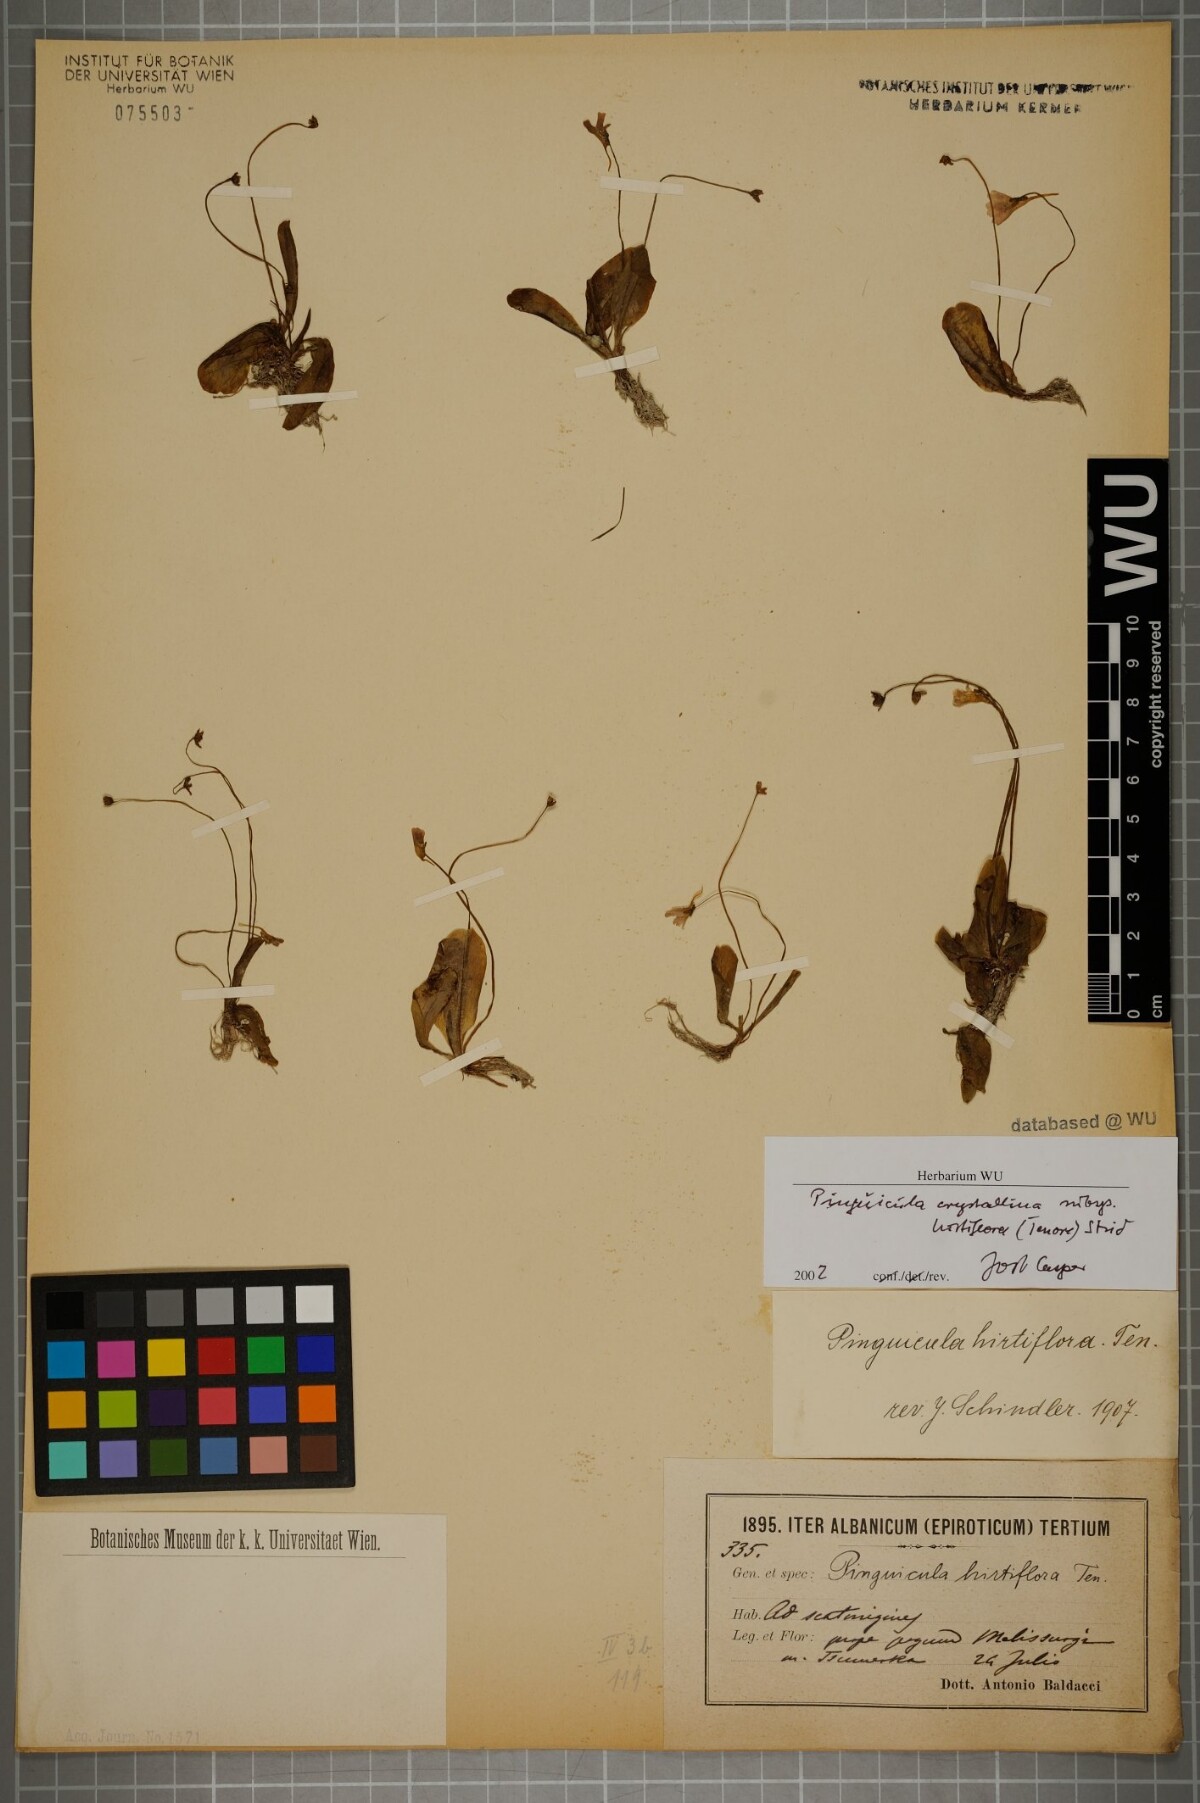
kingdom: Plantae
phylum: Tracheophyta
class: Magnoliopsida
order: Lamiales
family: Lentibulariaceae
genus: Pinguicula
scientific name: Pinguicula crystallina
